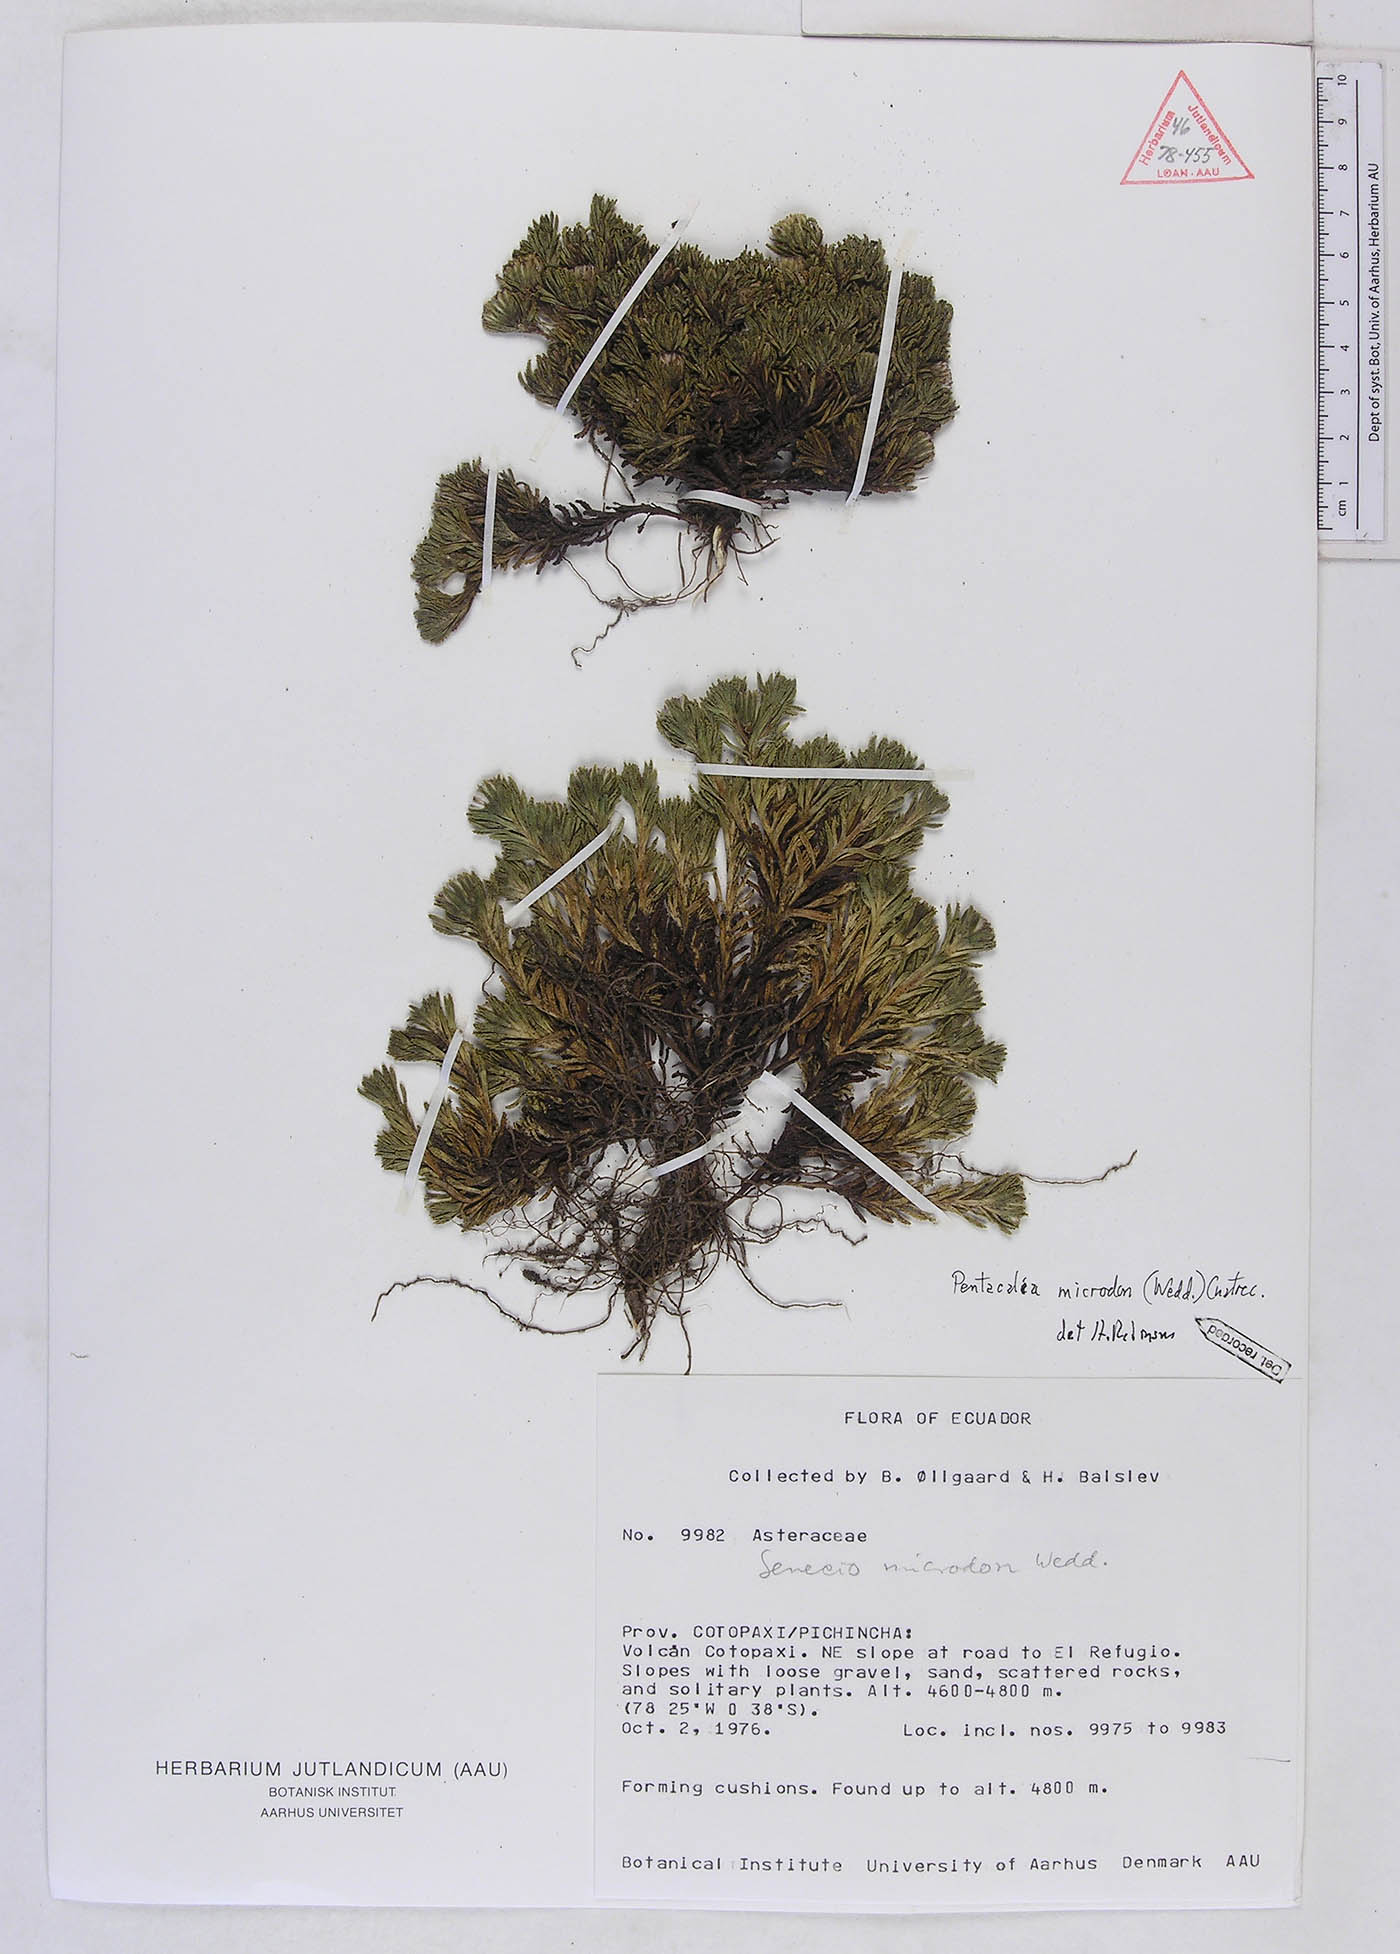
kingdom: Plantae
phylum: Tracheophyta
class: Magnoliopsida
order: Asterales
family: Asteraceae
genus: Monticalia
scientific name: Monticalia microdon
